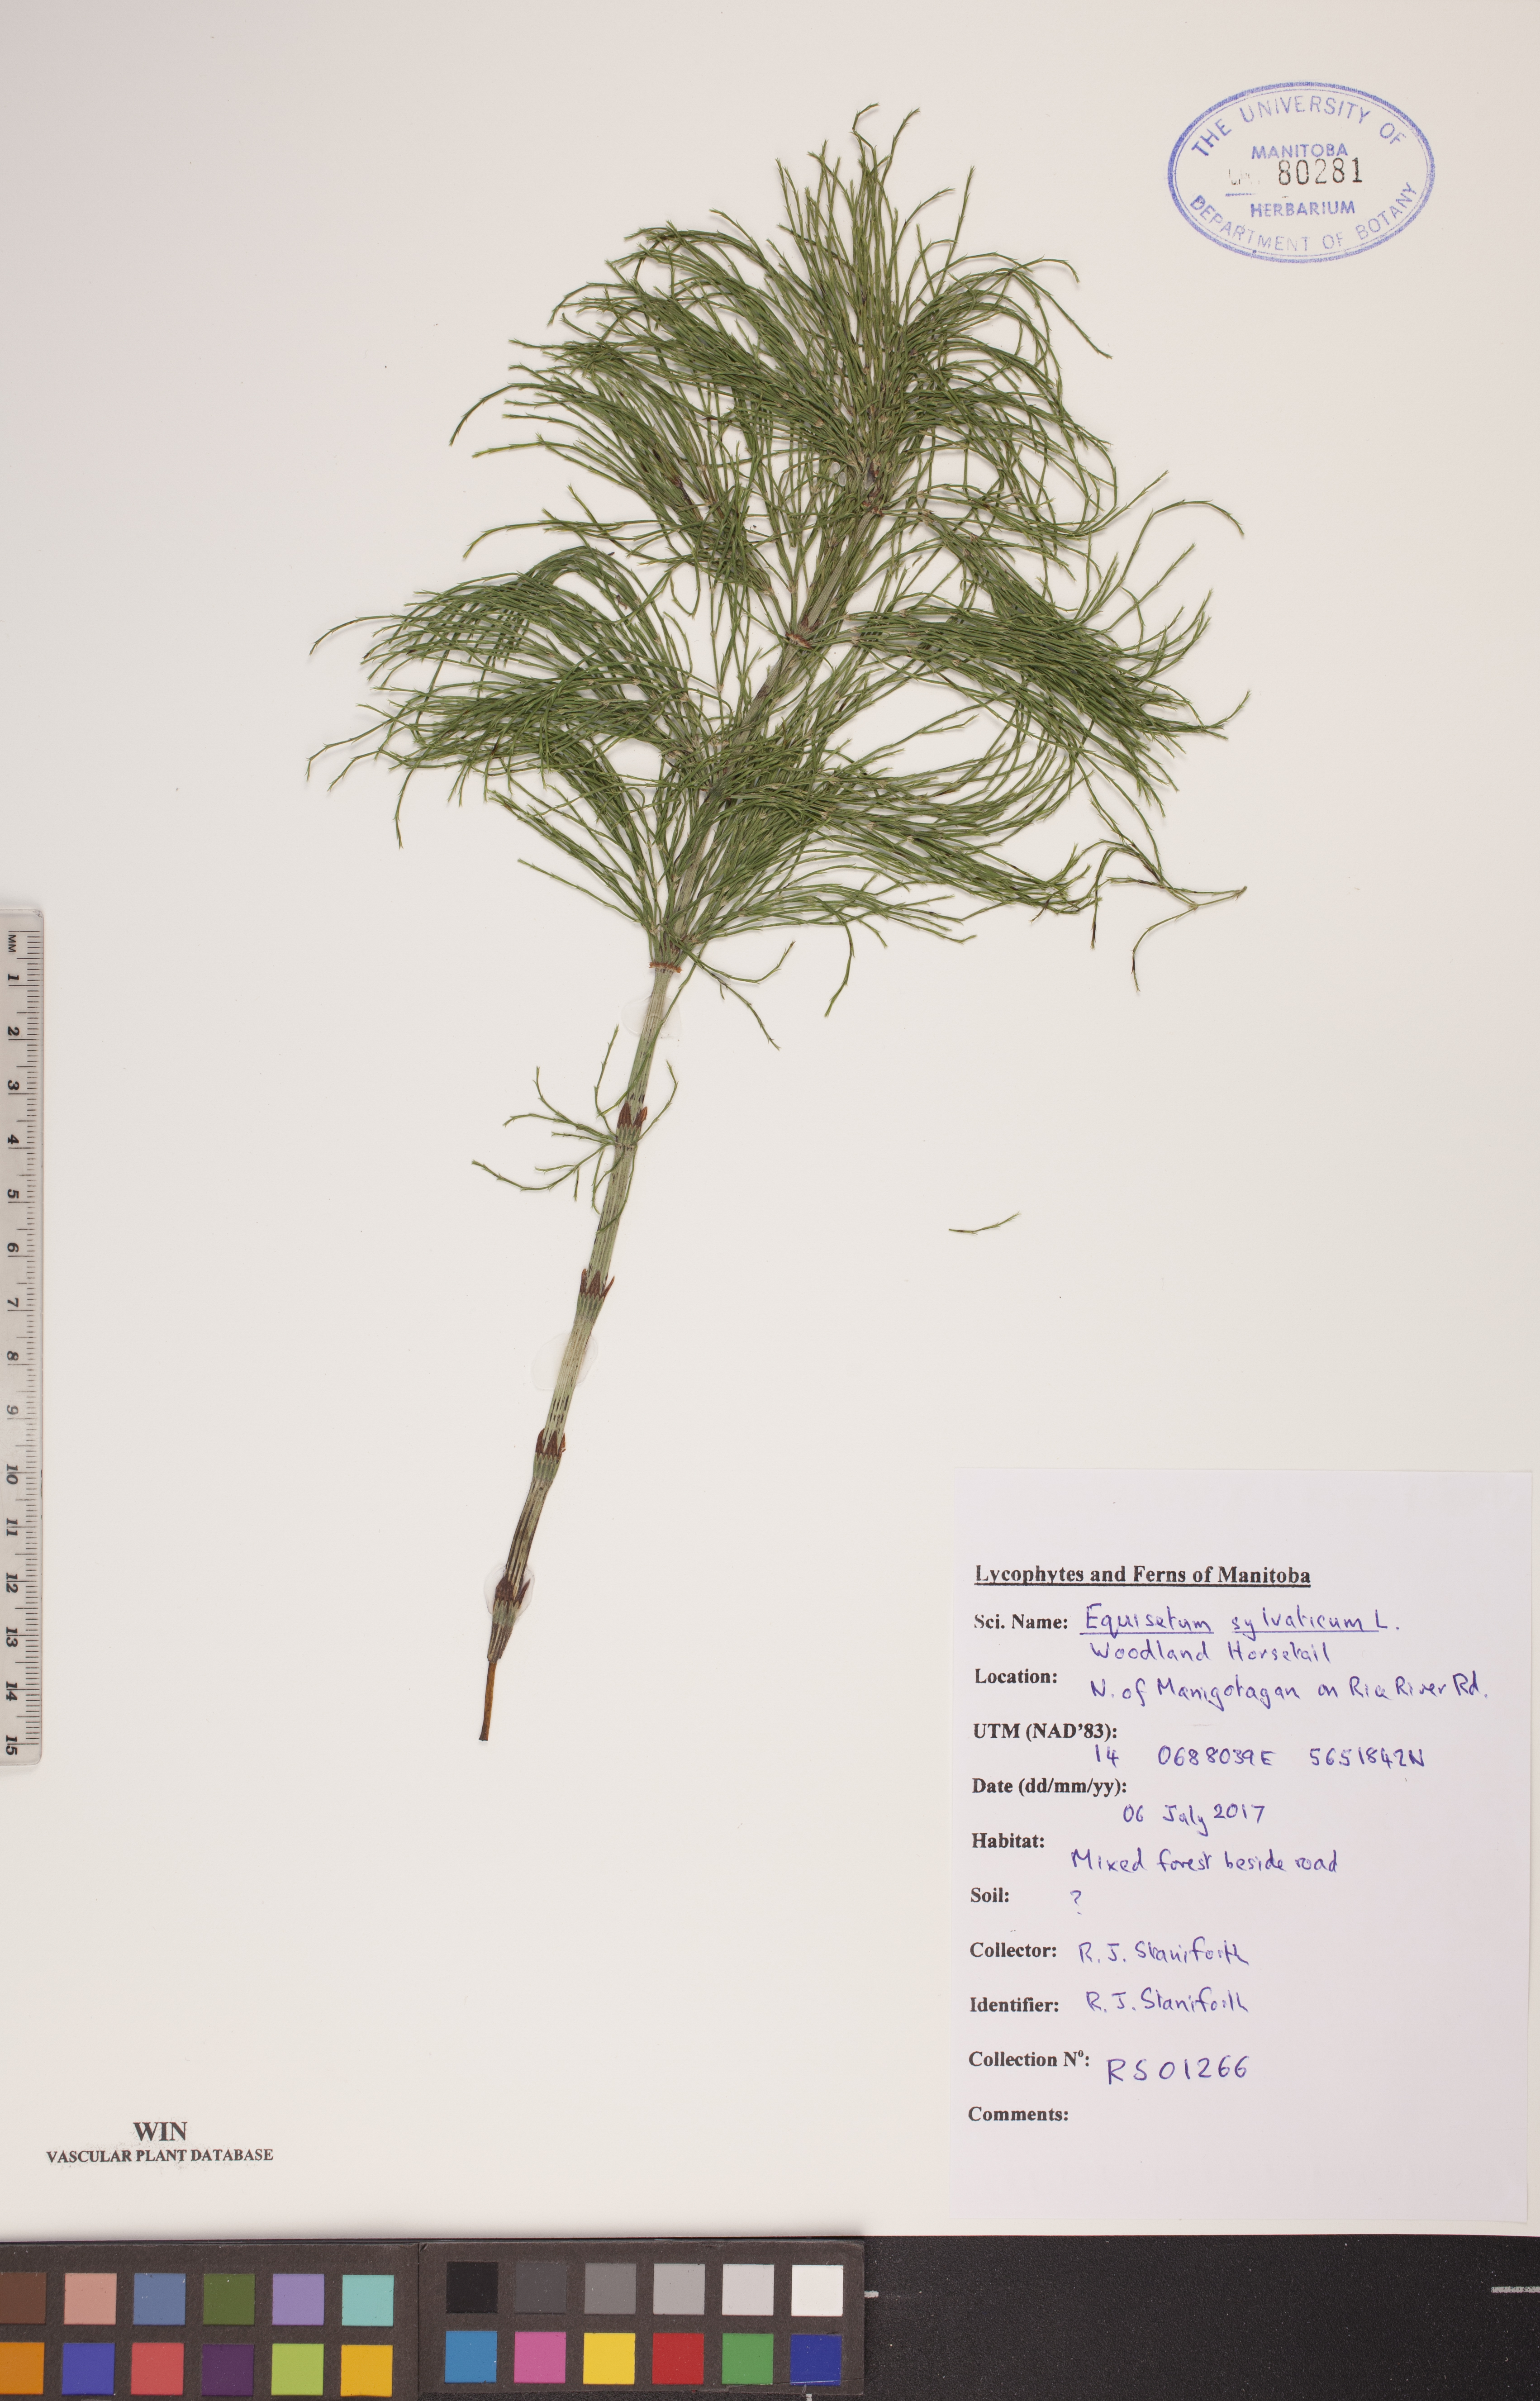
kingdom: Plantae
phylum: Tracheophyta
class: Polypodiopsida
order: Equisetales
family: Equisetaceae
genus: Equisetum
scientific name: Equisetum sylvaticum
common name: Wood horsetail
